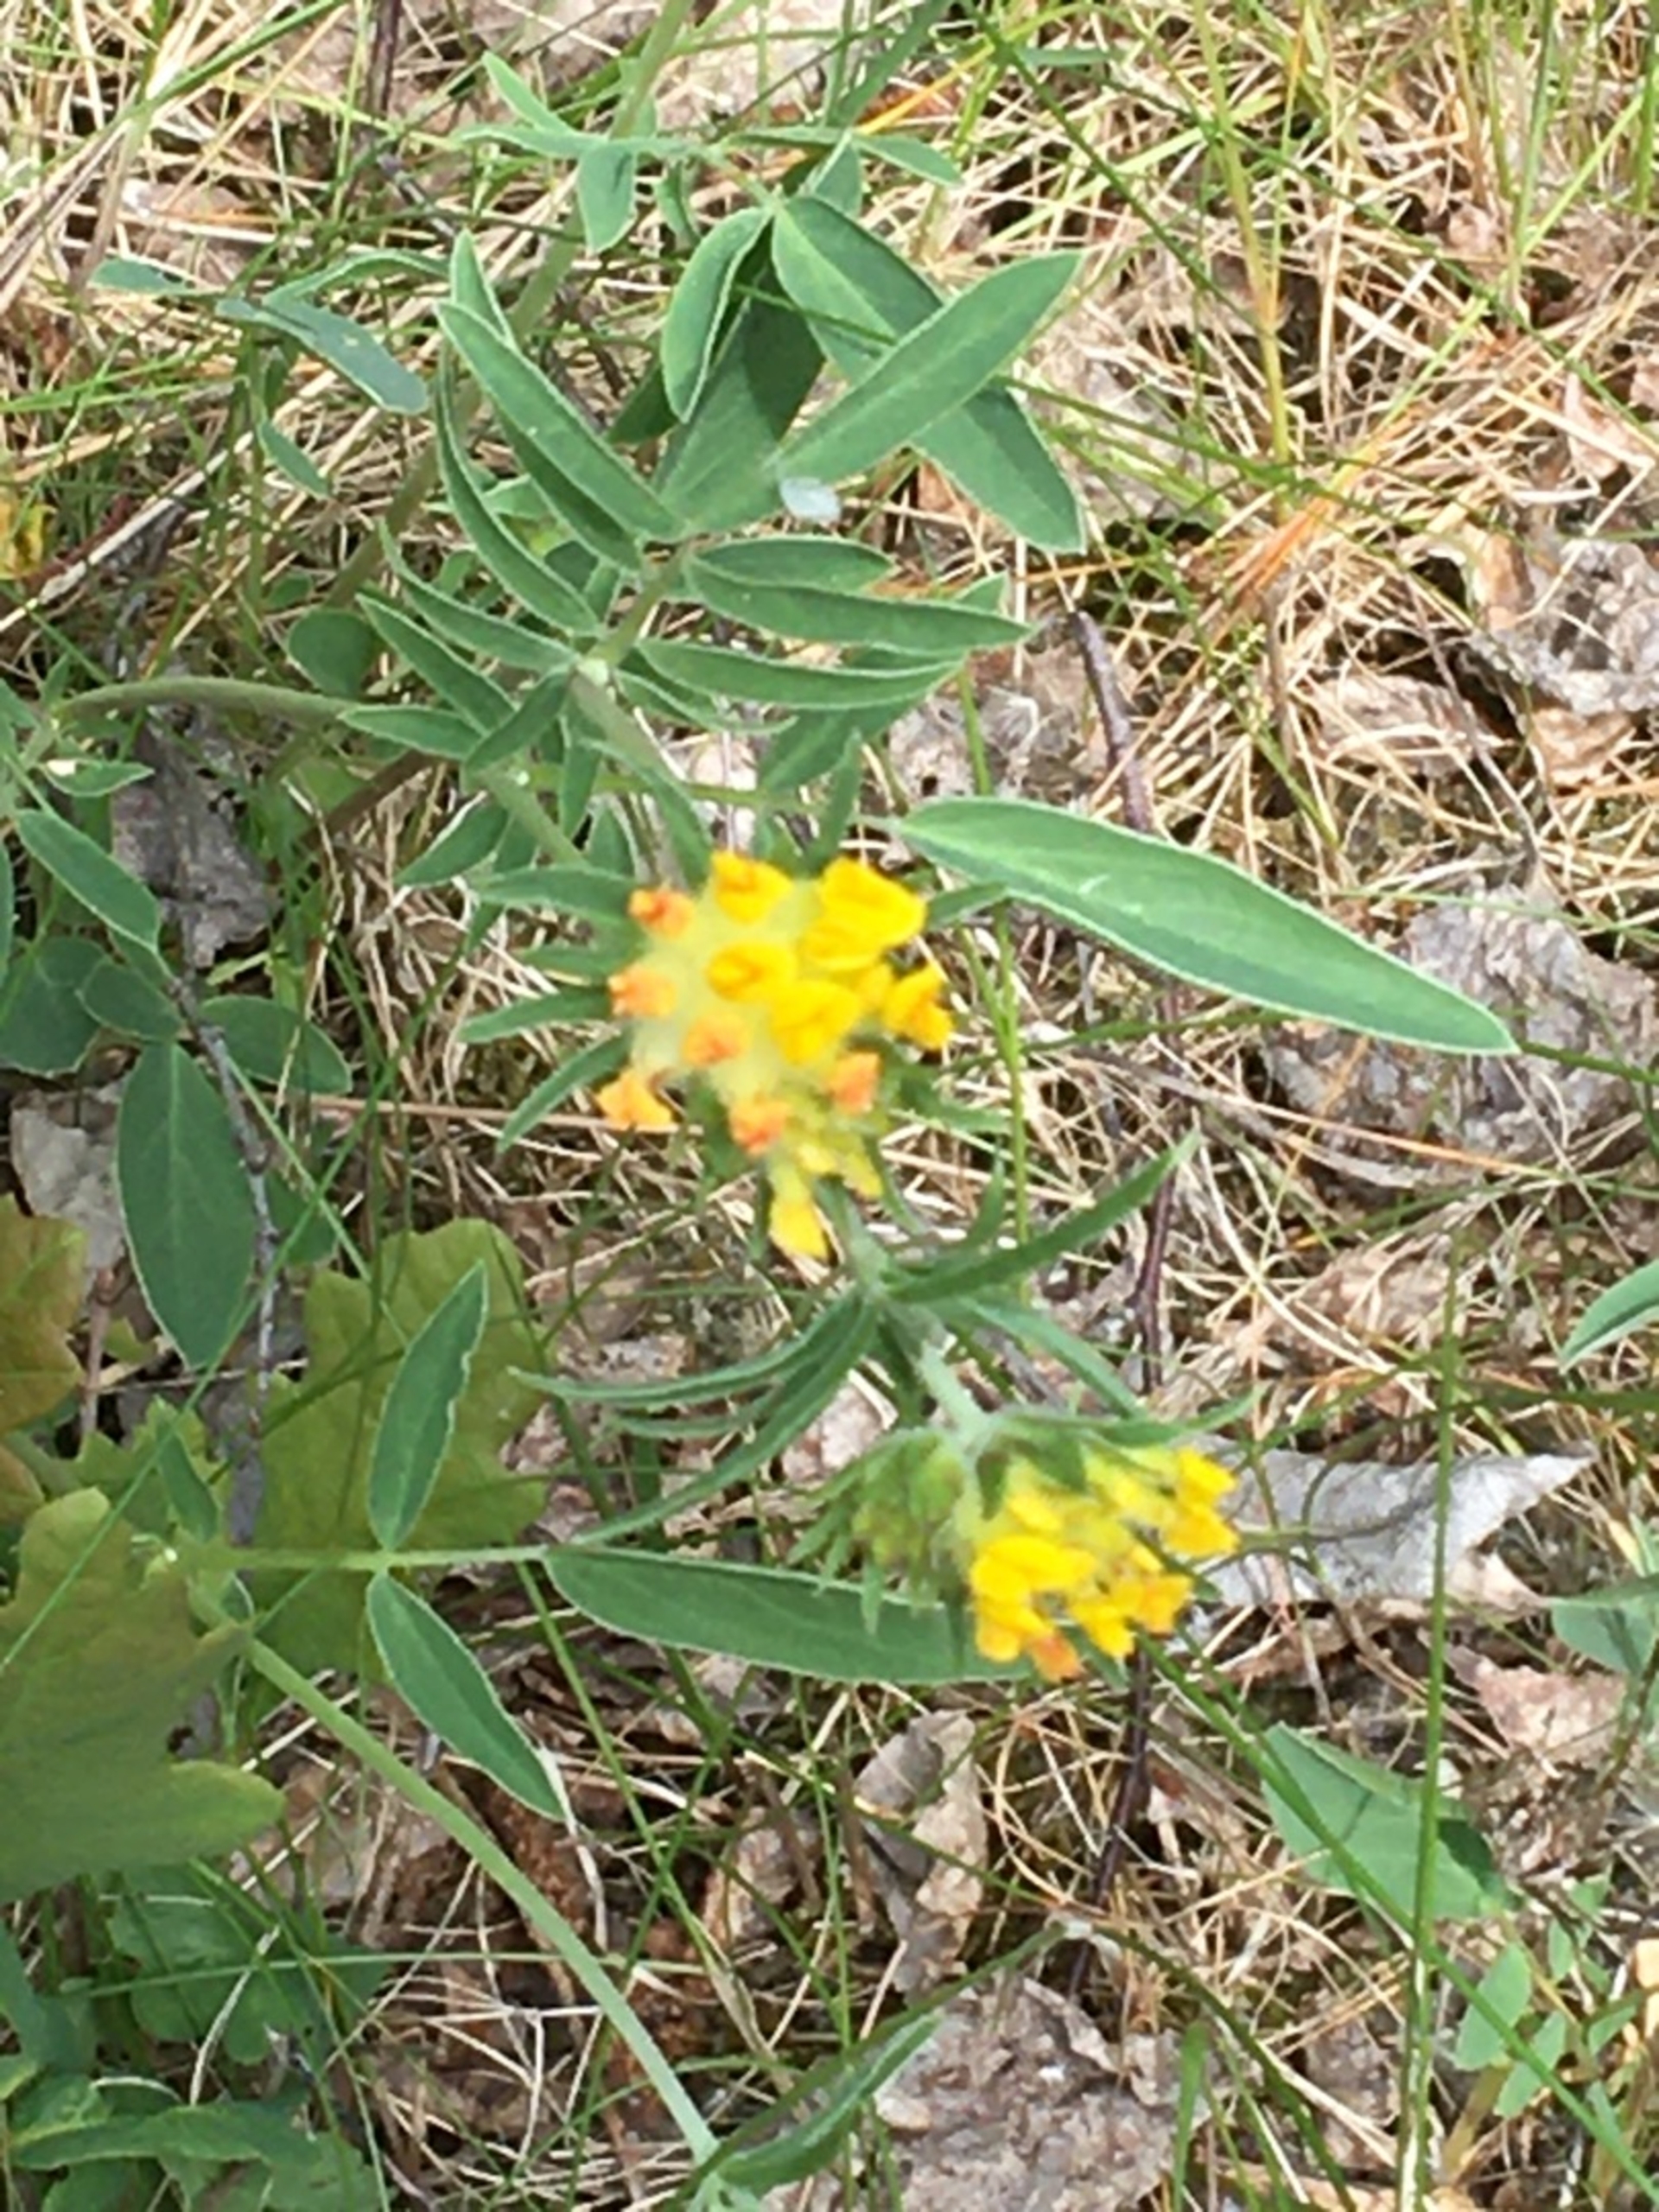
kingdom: Plantae
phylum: Tracheophyta
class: Magnoliopsida
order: Fabales
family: Fabaceae
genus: Anthyllis
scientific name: Anthyllis vulneraria
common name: Rundbælg
